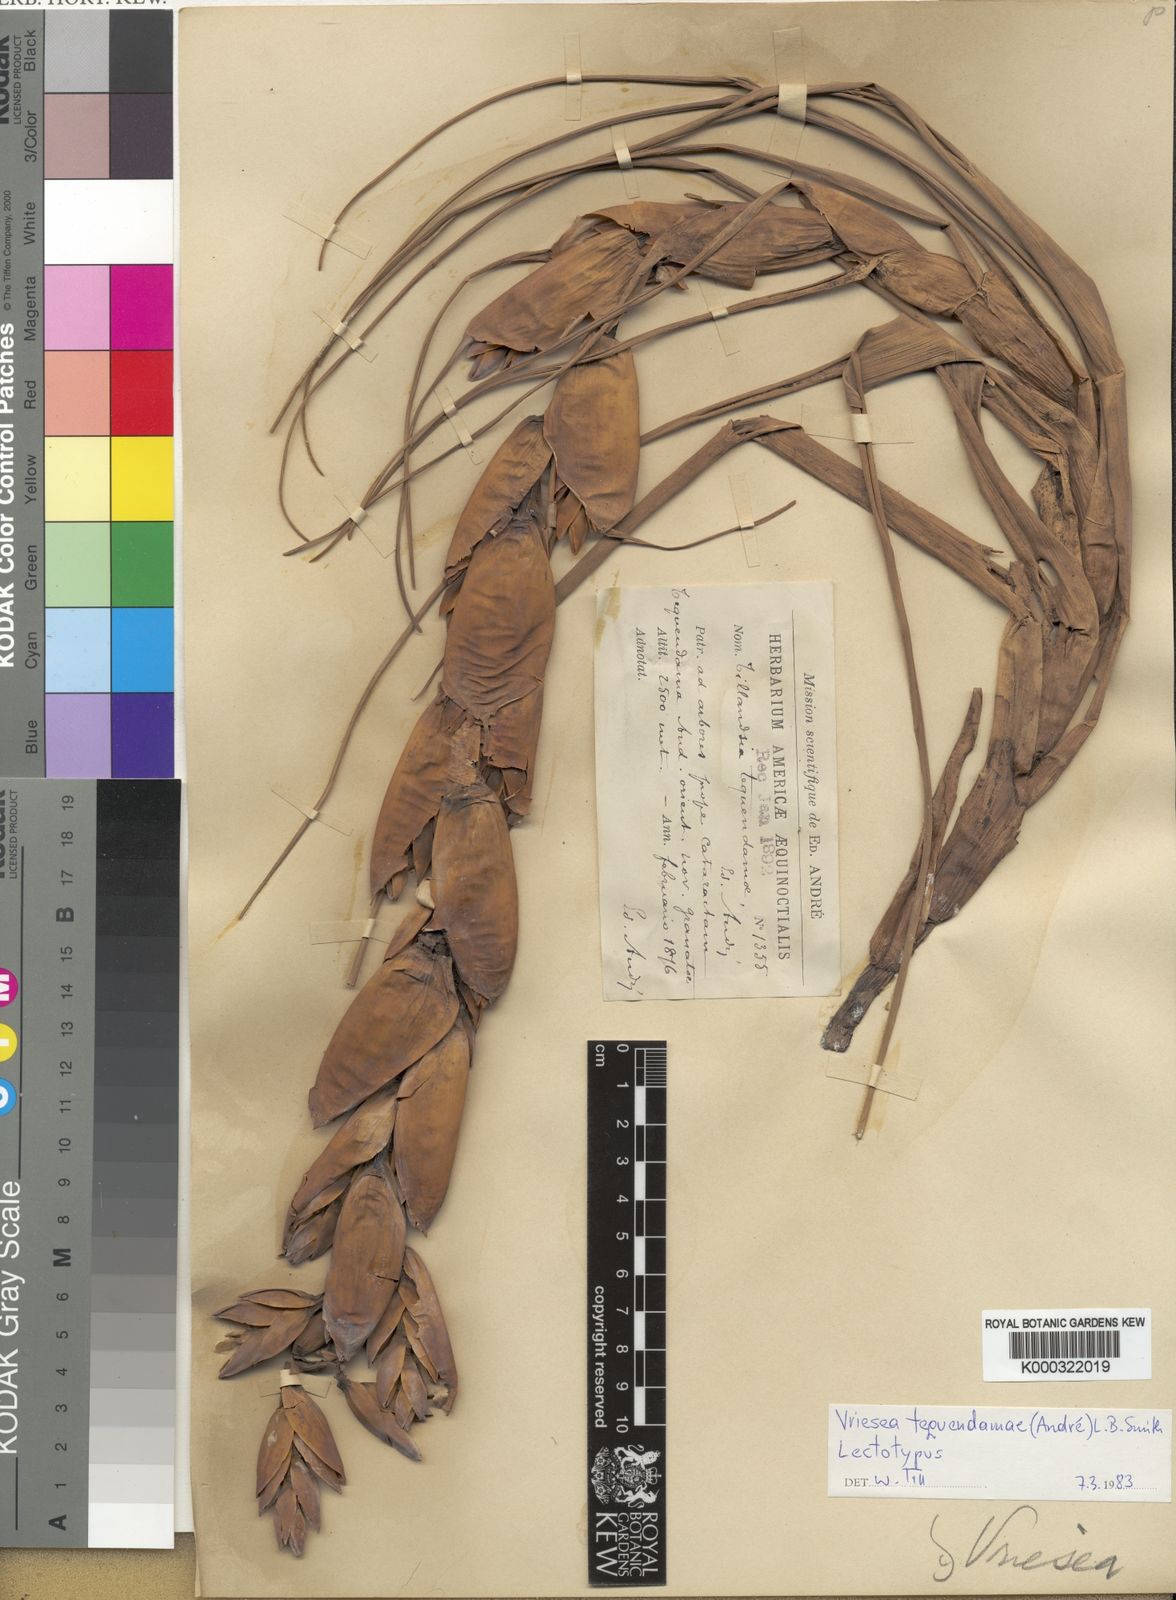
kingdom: Plantae
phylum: Tracheophyta
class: Liliopsida
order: Poales
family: Bromeliaceae
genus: Vriesea
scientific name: Vriesea
